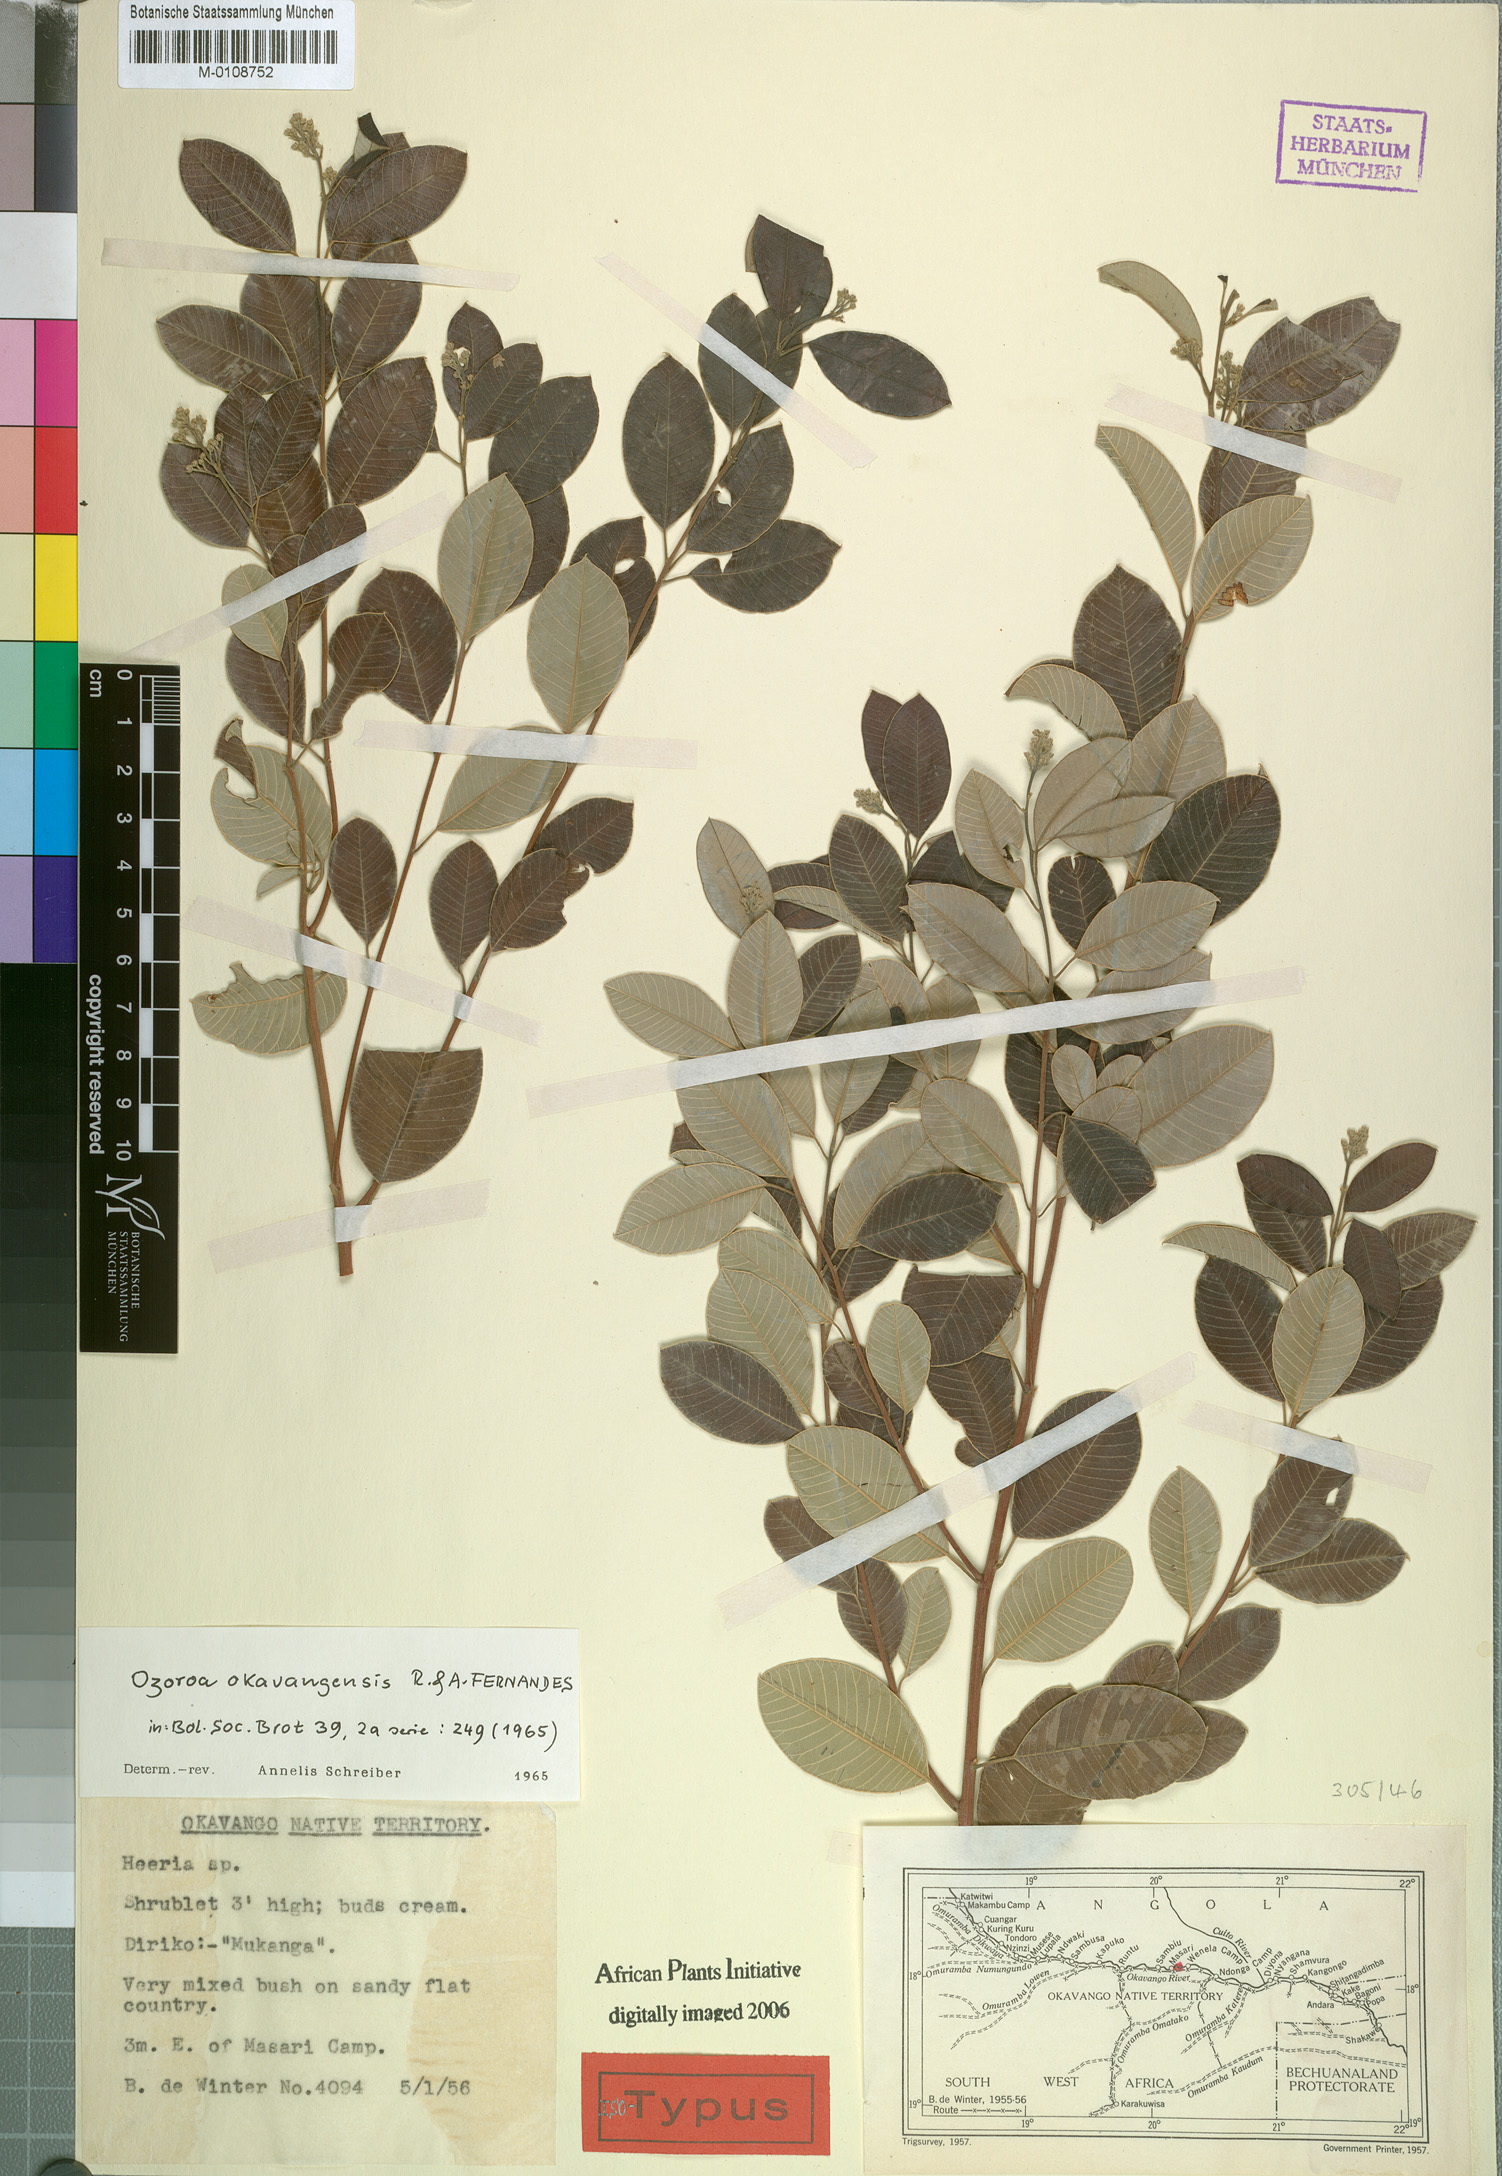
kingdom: Plantae
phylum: Tracheophyta
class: Magnoliopsida
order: Sapindales
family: Anacardiaceae
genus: Ozoroa
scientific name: Ozoroa okavangensis
